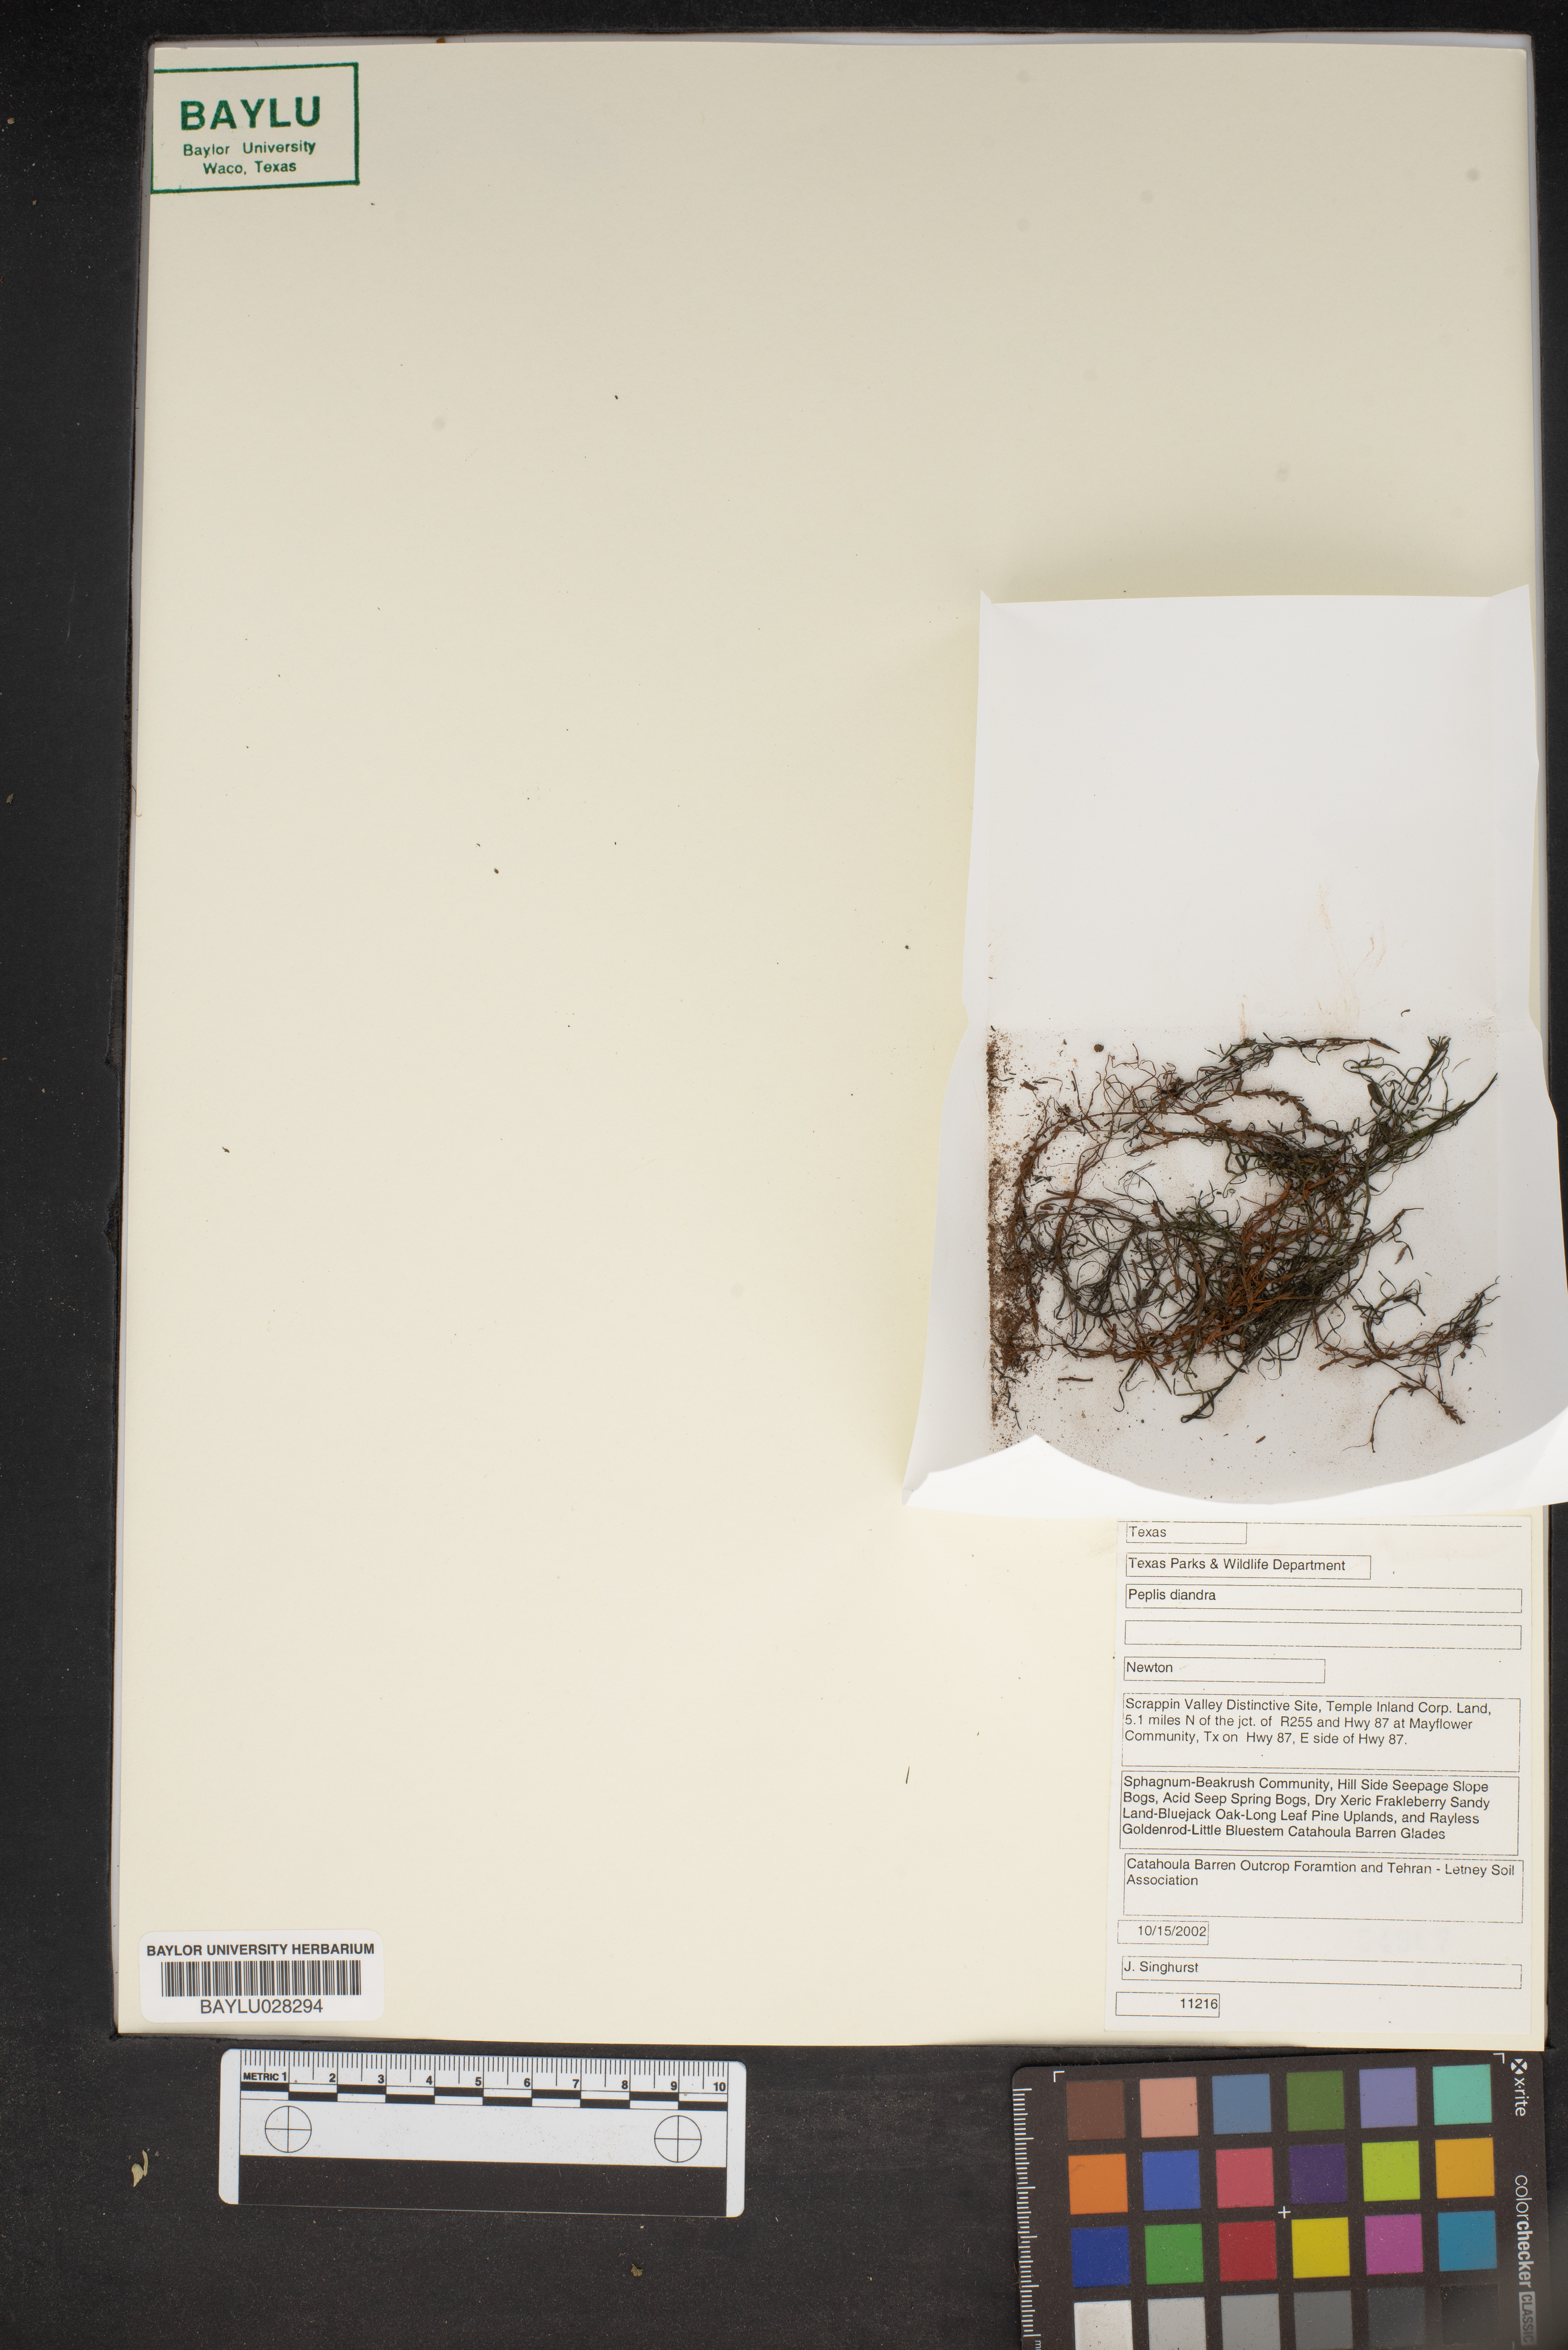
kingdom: Plantae
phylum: Tracheophyta
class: Magnoliopsida
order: Myrtales
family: Lythraceae
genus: Didiplis
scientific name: Didiplis diandra
